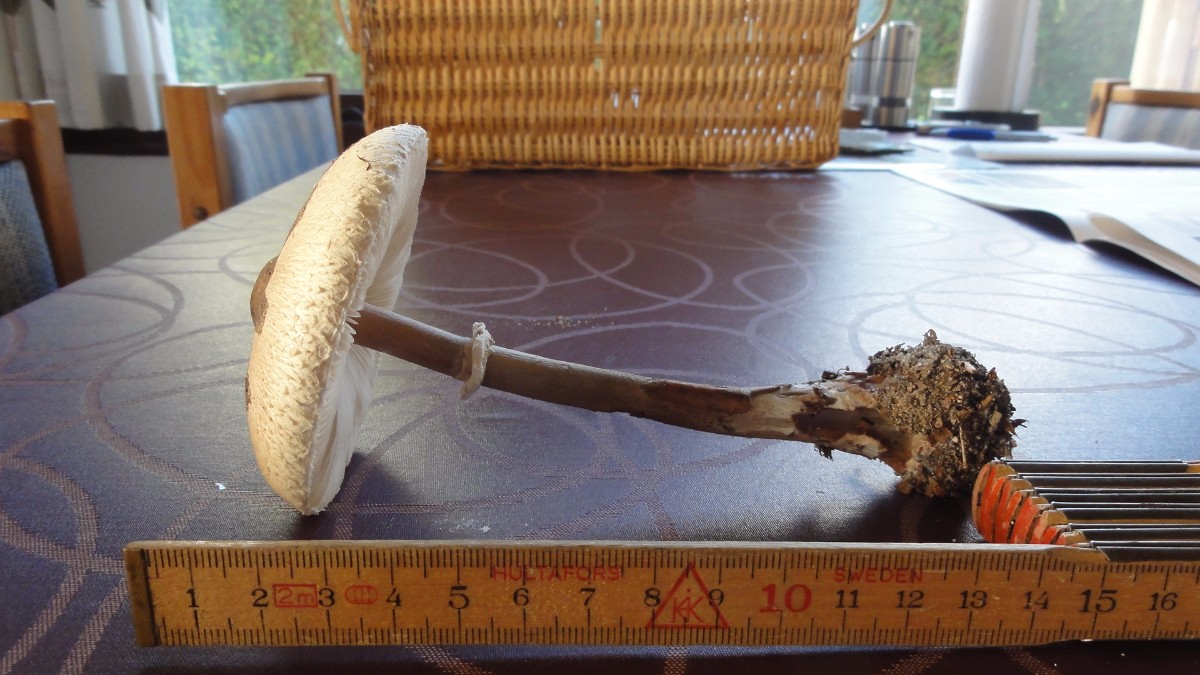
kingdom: Fungi
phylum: Basidiomycota
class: Agaricomycetes
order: Agaricales
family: Agaricaceae
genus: Macrolepiota
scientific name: Macrolepiota mastoidea
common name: puklet kæmpeparasolhat
